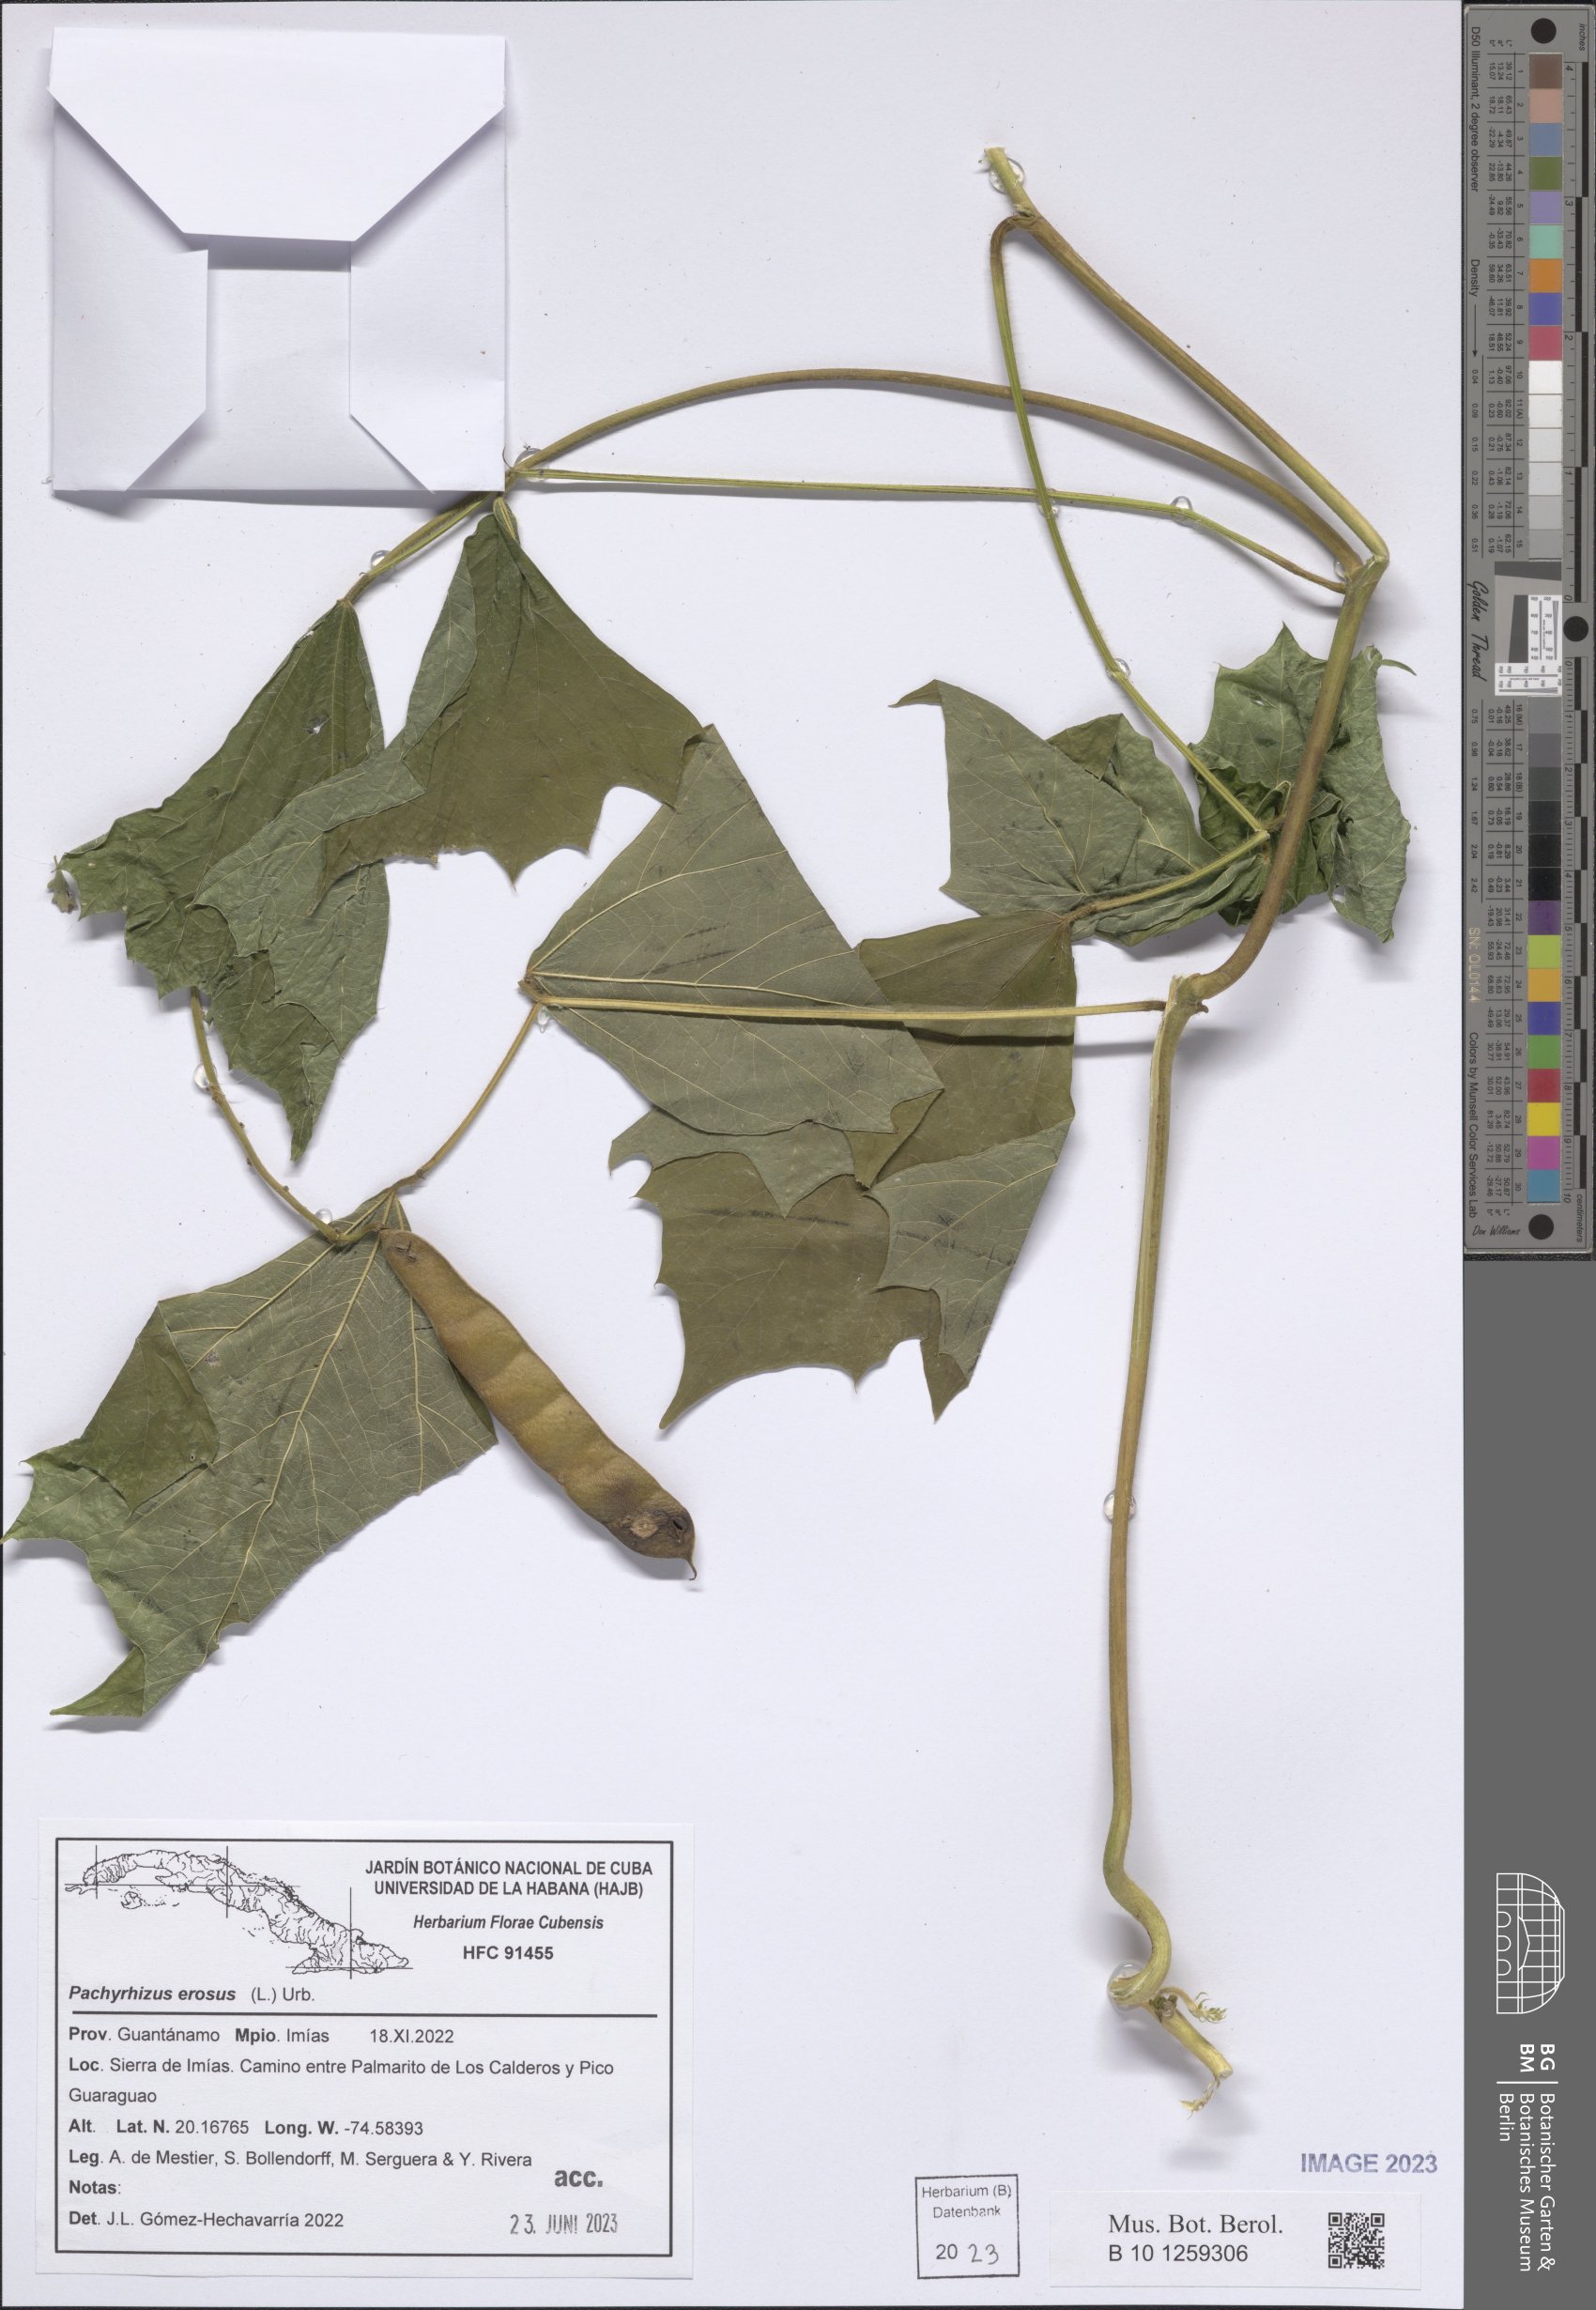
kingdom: Plantae
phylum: Tracheophyta
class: Magnoliopsida
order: Fabales
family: Fabaceae
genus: Pachyrhizus
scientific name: Pachyrhizus erosus
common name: Yam bean
